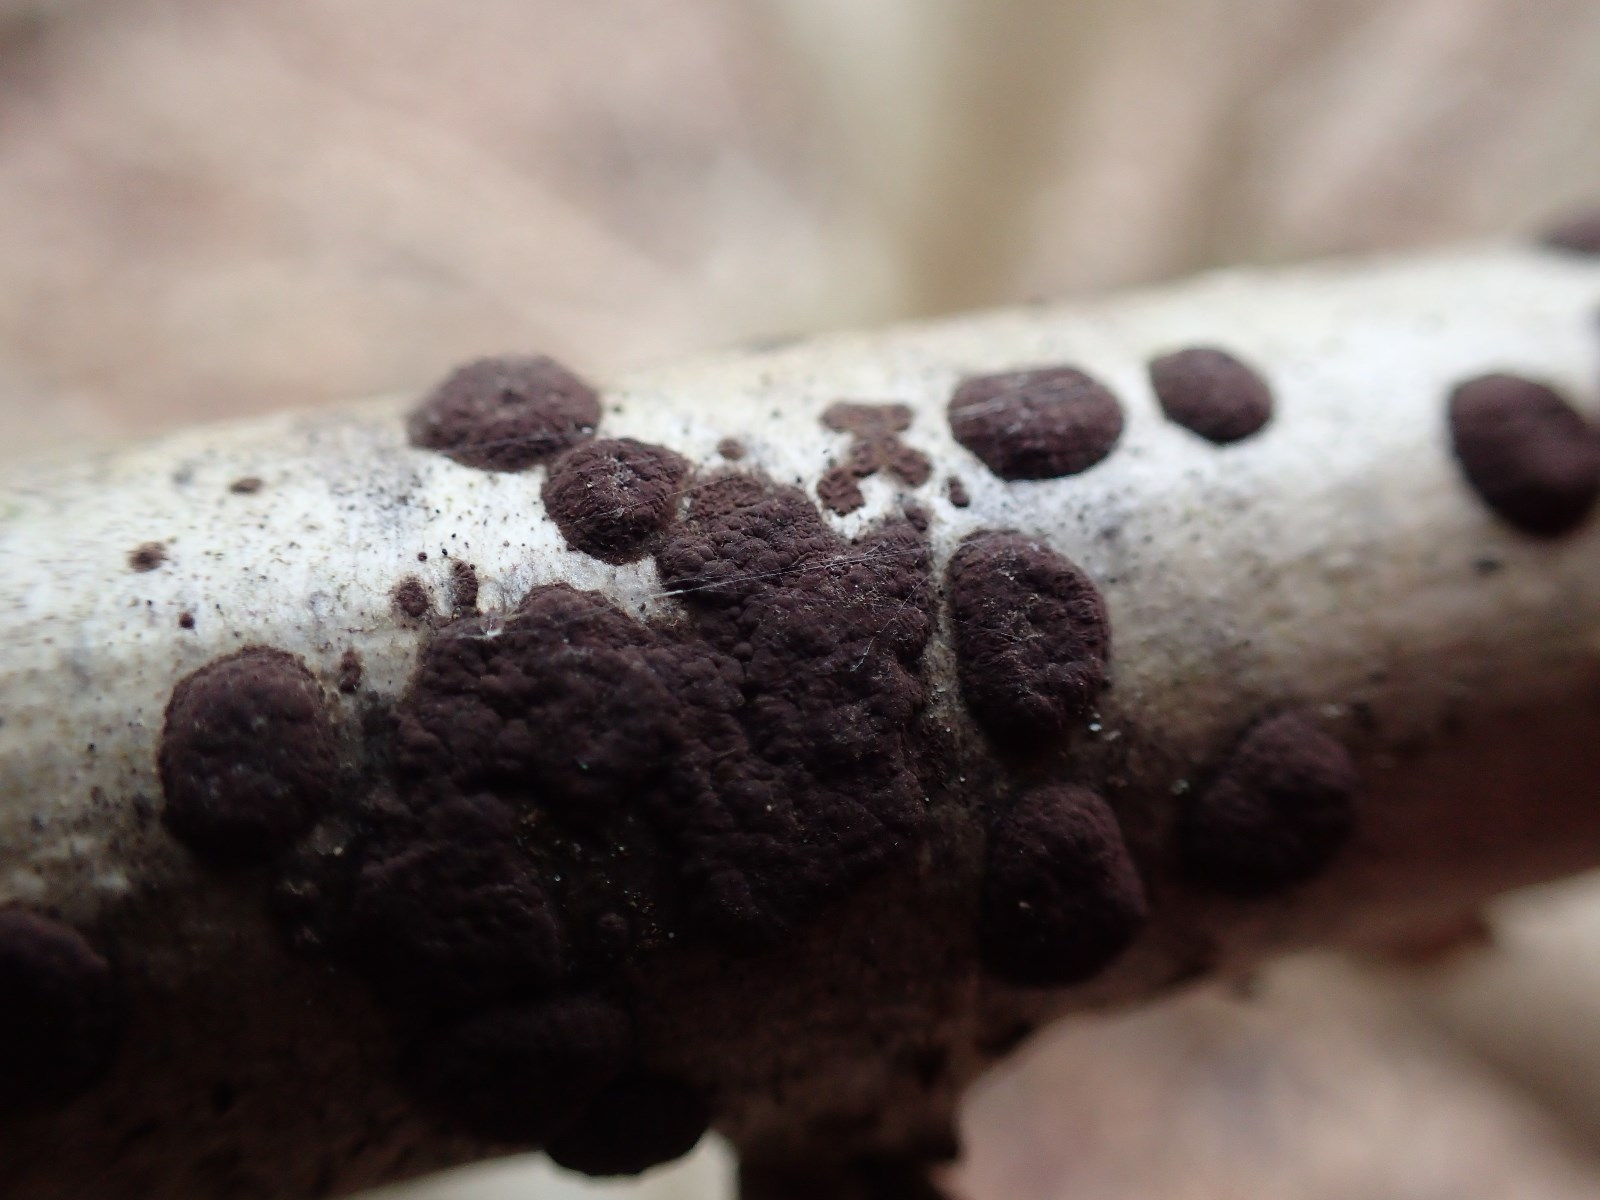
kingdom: Fungi
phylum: Ascomycota
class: Sordariomycetes
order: Xylariales
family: Hypoxylaceae
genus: Hypoxylon
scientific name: Hypoxylon fuscum
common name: kegleformet kulbær
